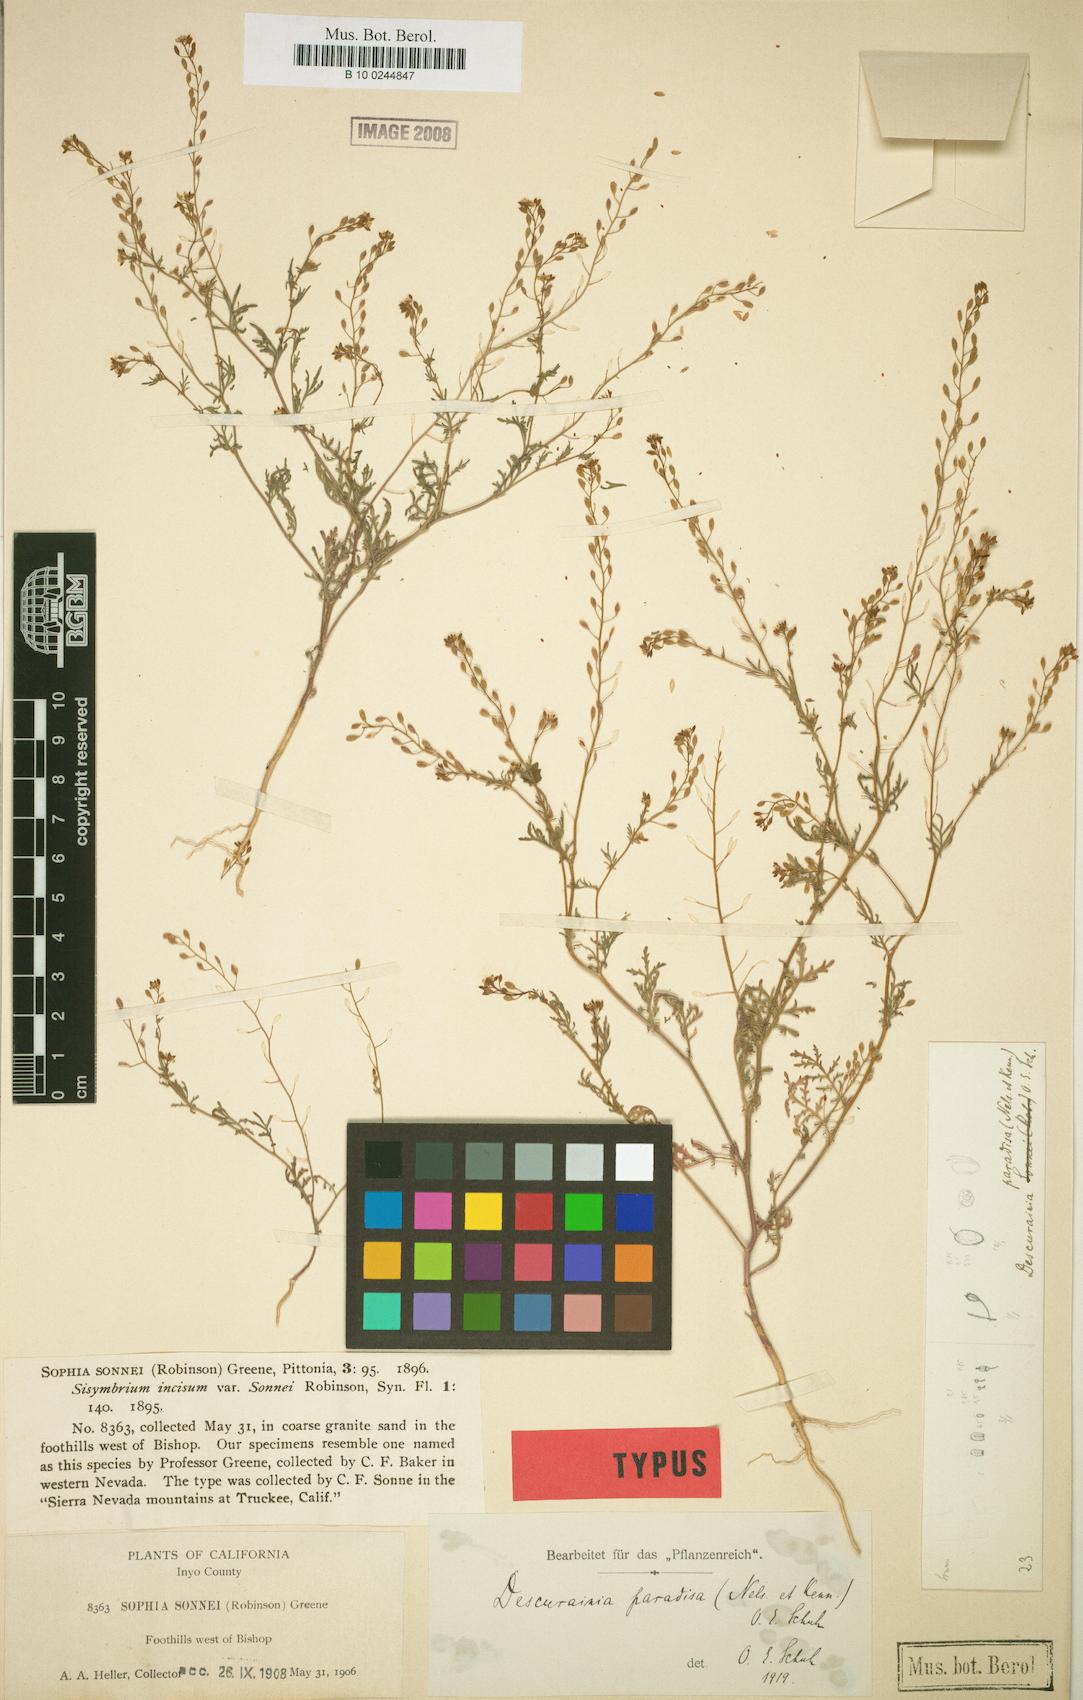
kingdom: Plantae
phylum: Tracheophyta
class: Magnoliopsida
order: Brassicales
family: Brassicaceae
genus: Descurainia
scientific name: Descurainia paradisa
